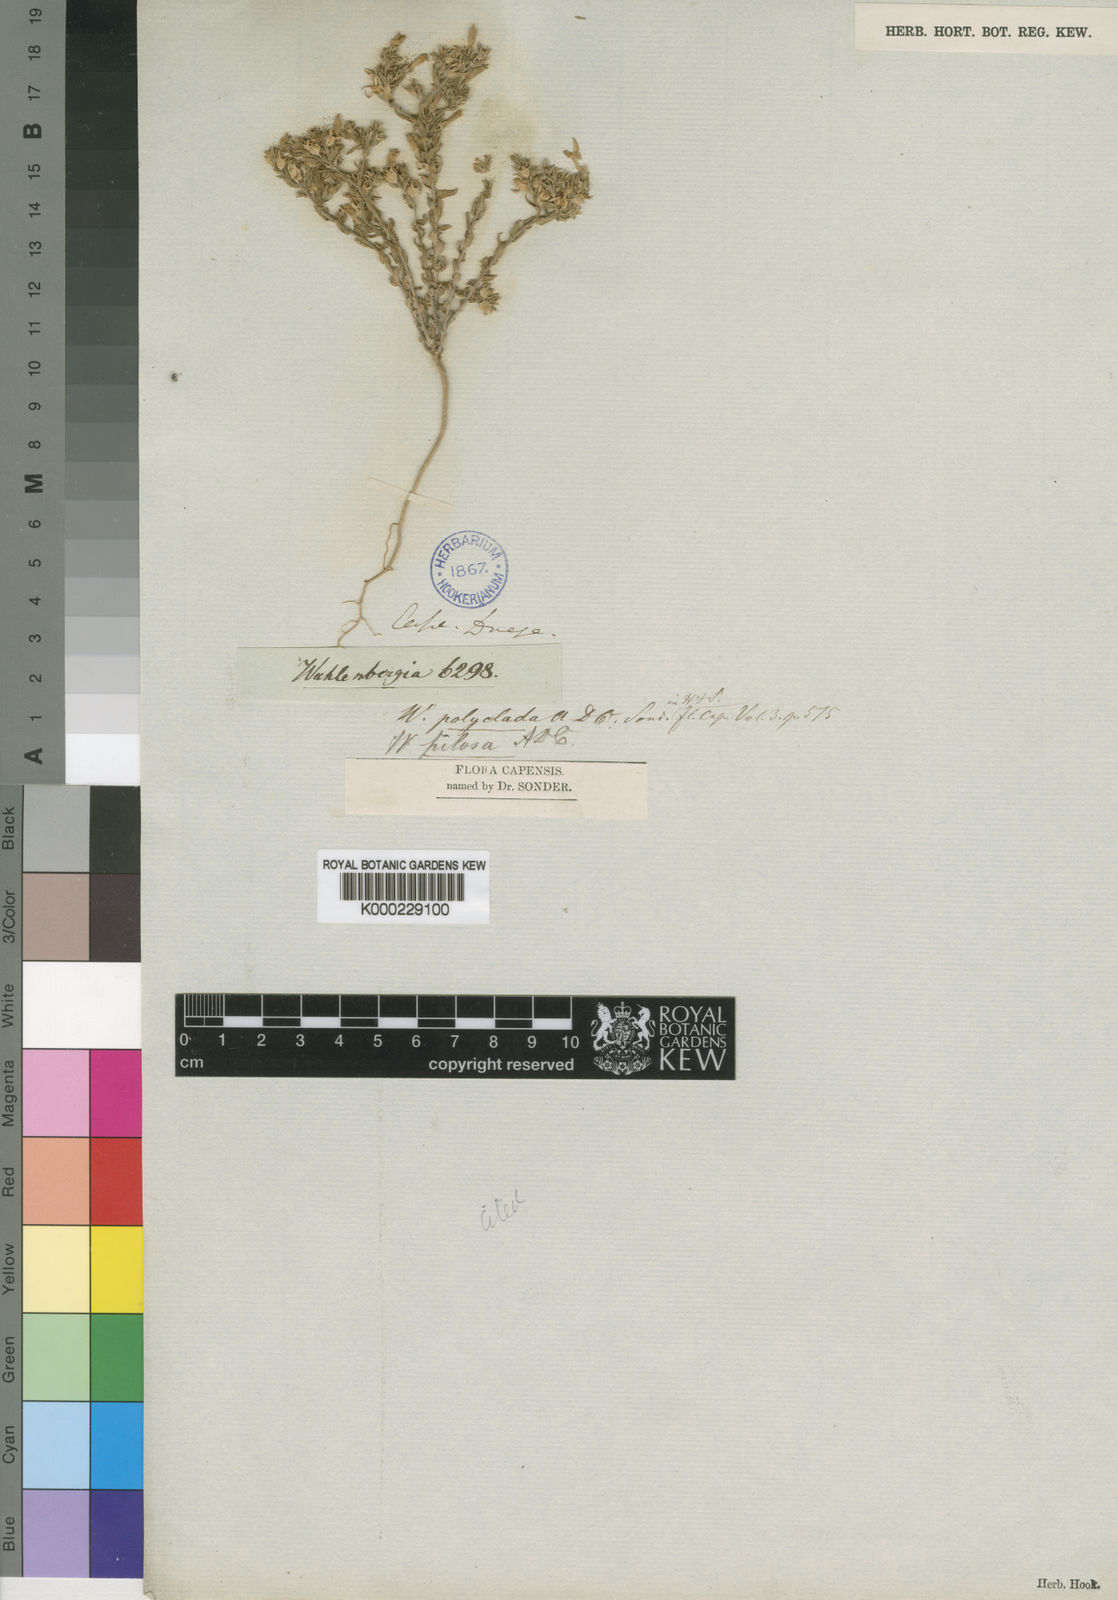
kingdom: Plantae
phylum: Tracheophyta
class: Magnoliopsida
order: Asterales
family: Campanulaceae
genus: Wahlenbergia
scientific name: Wahlenbergia polyclada
